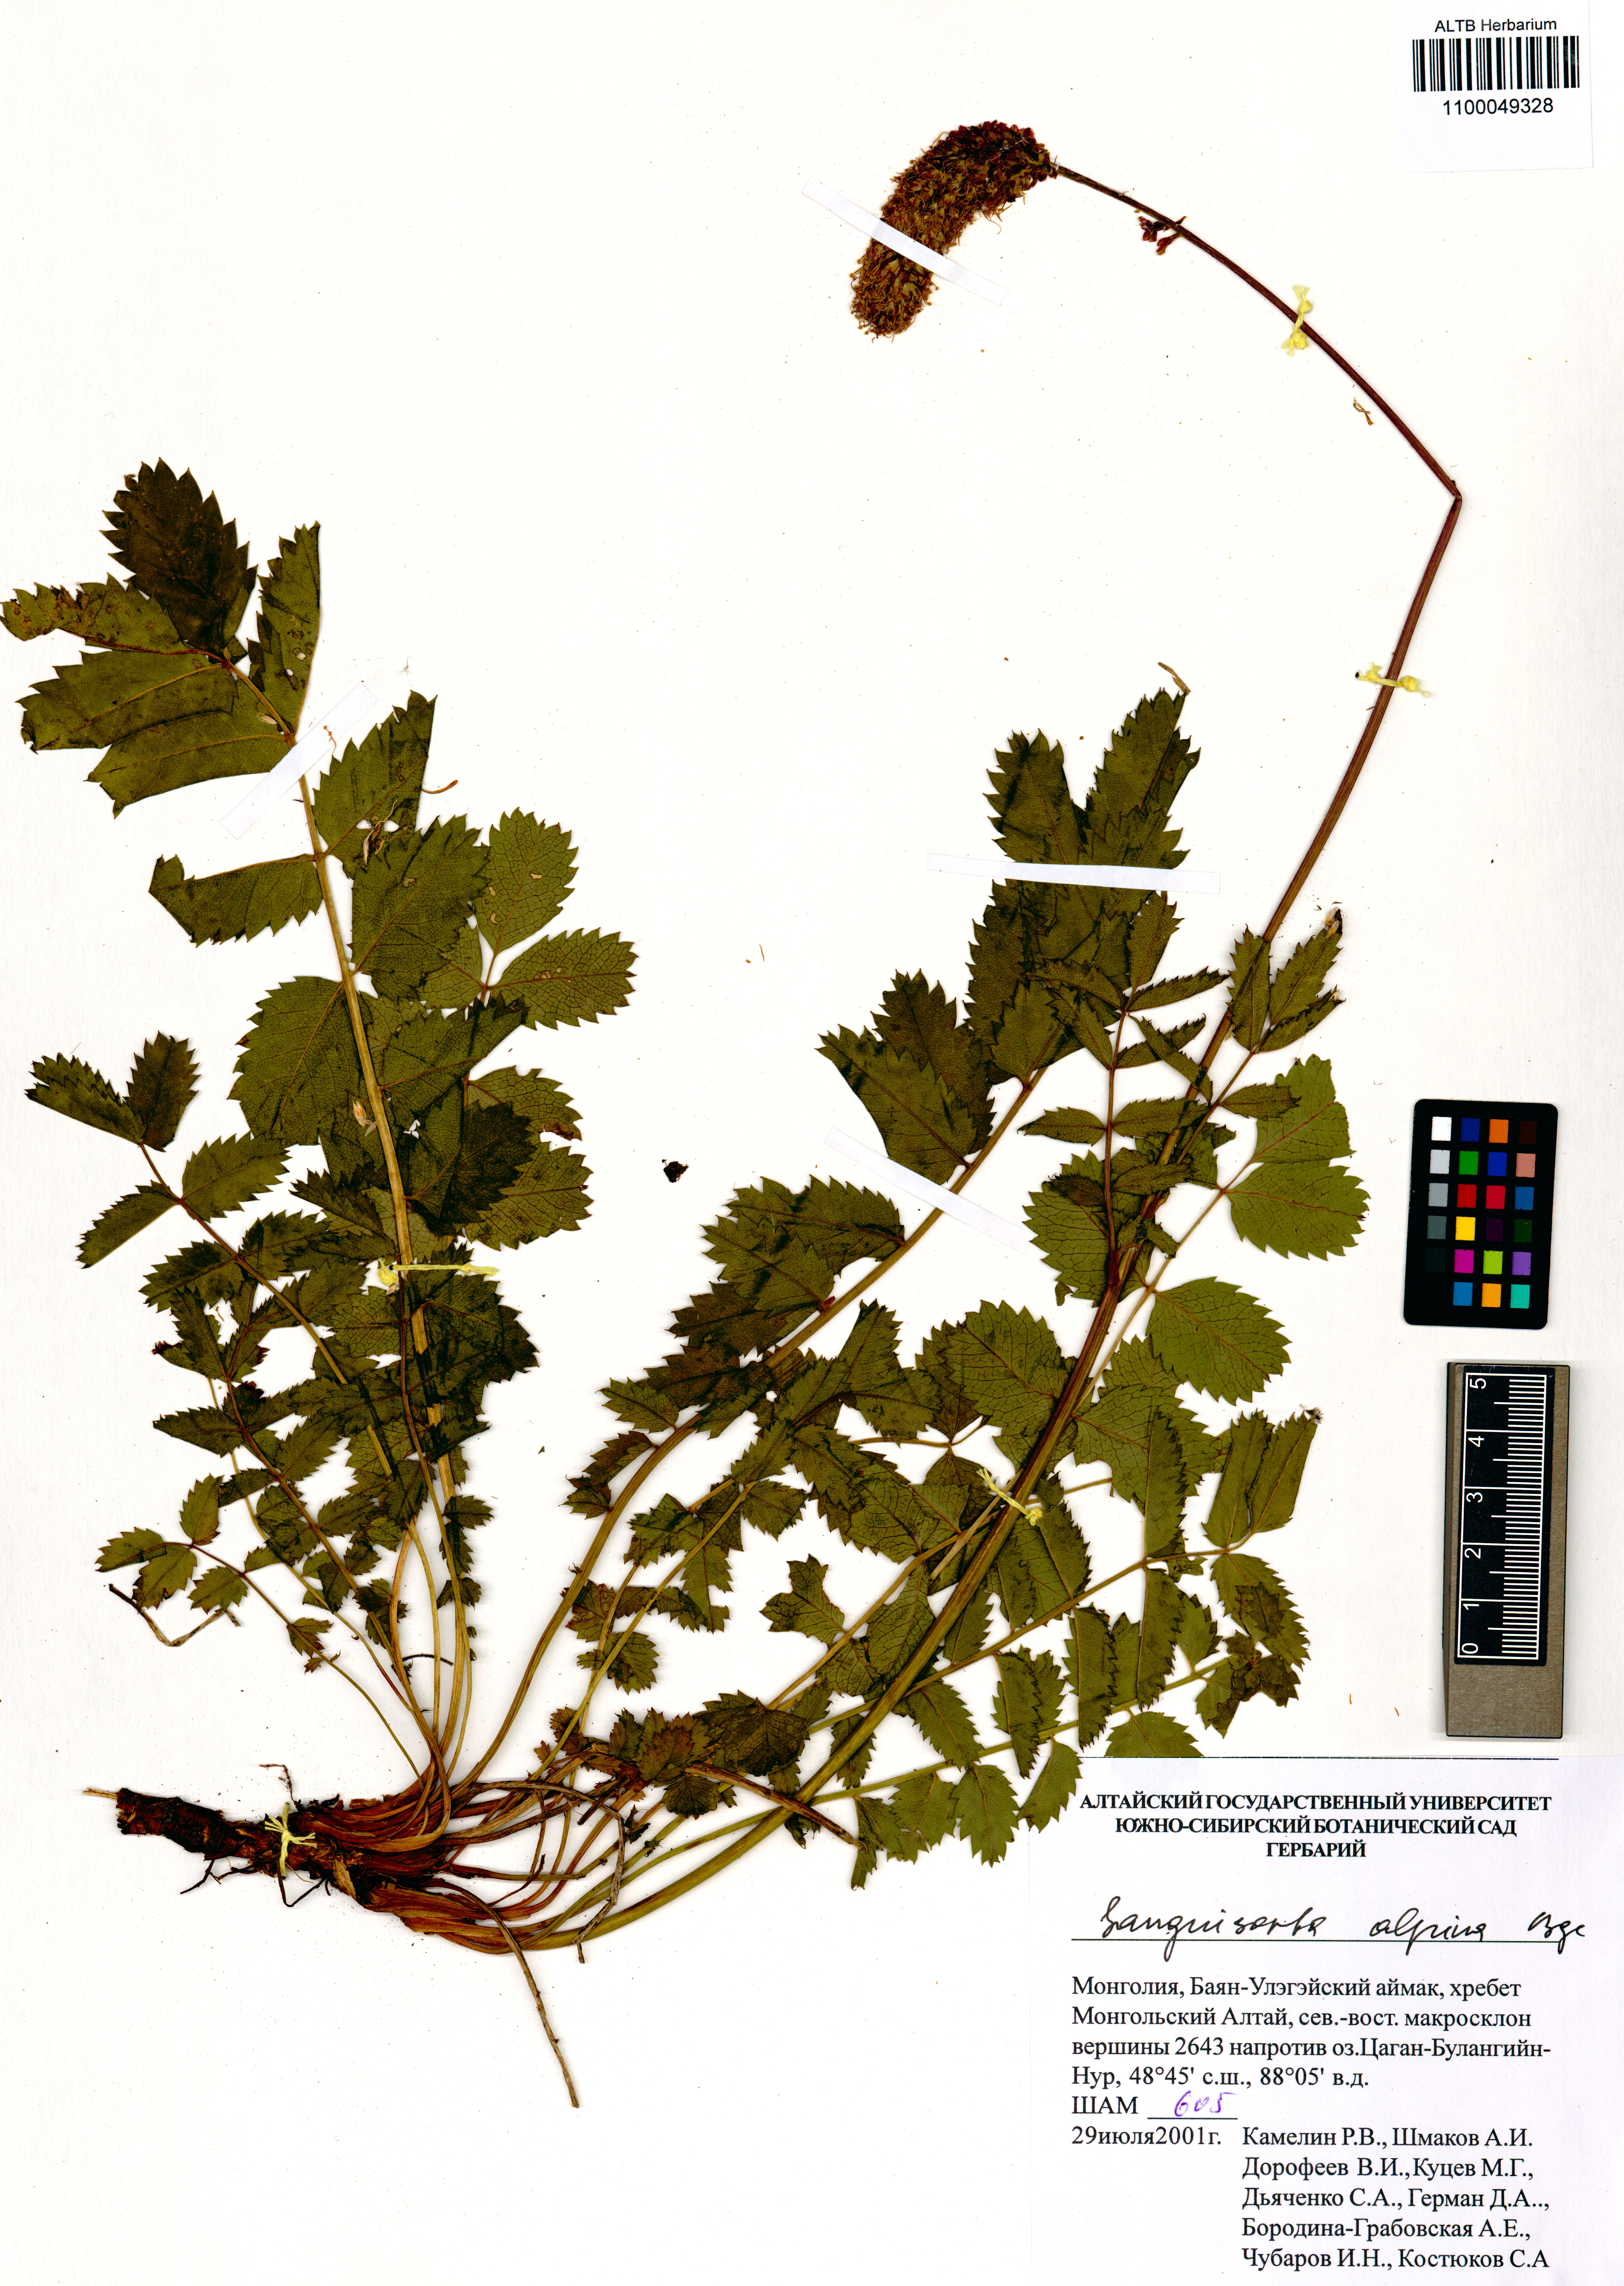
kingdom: Plantae
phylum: Tracheophyta
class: Magnoliopsida
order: Rosales
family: Rosaceae
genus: Sanguisorba
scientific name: Sanguisorba alpina
